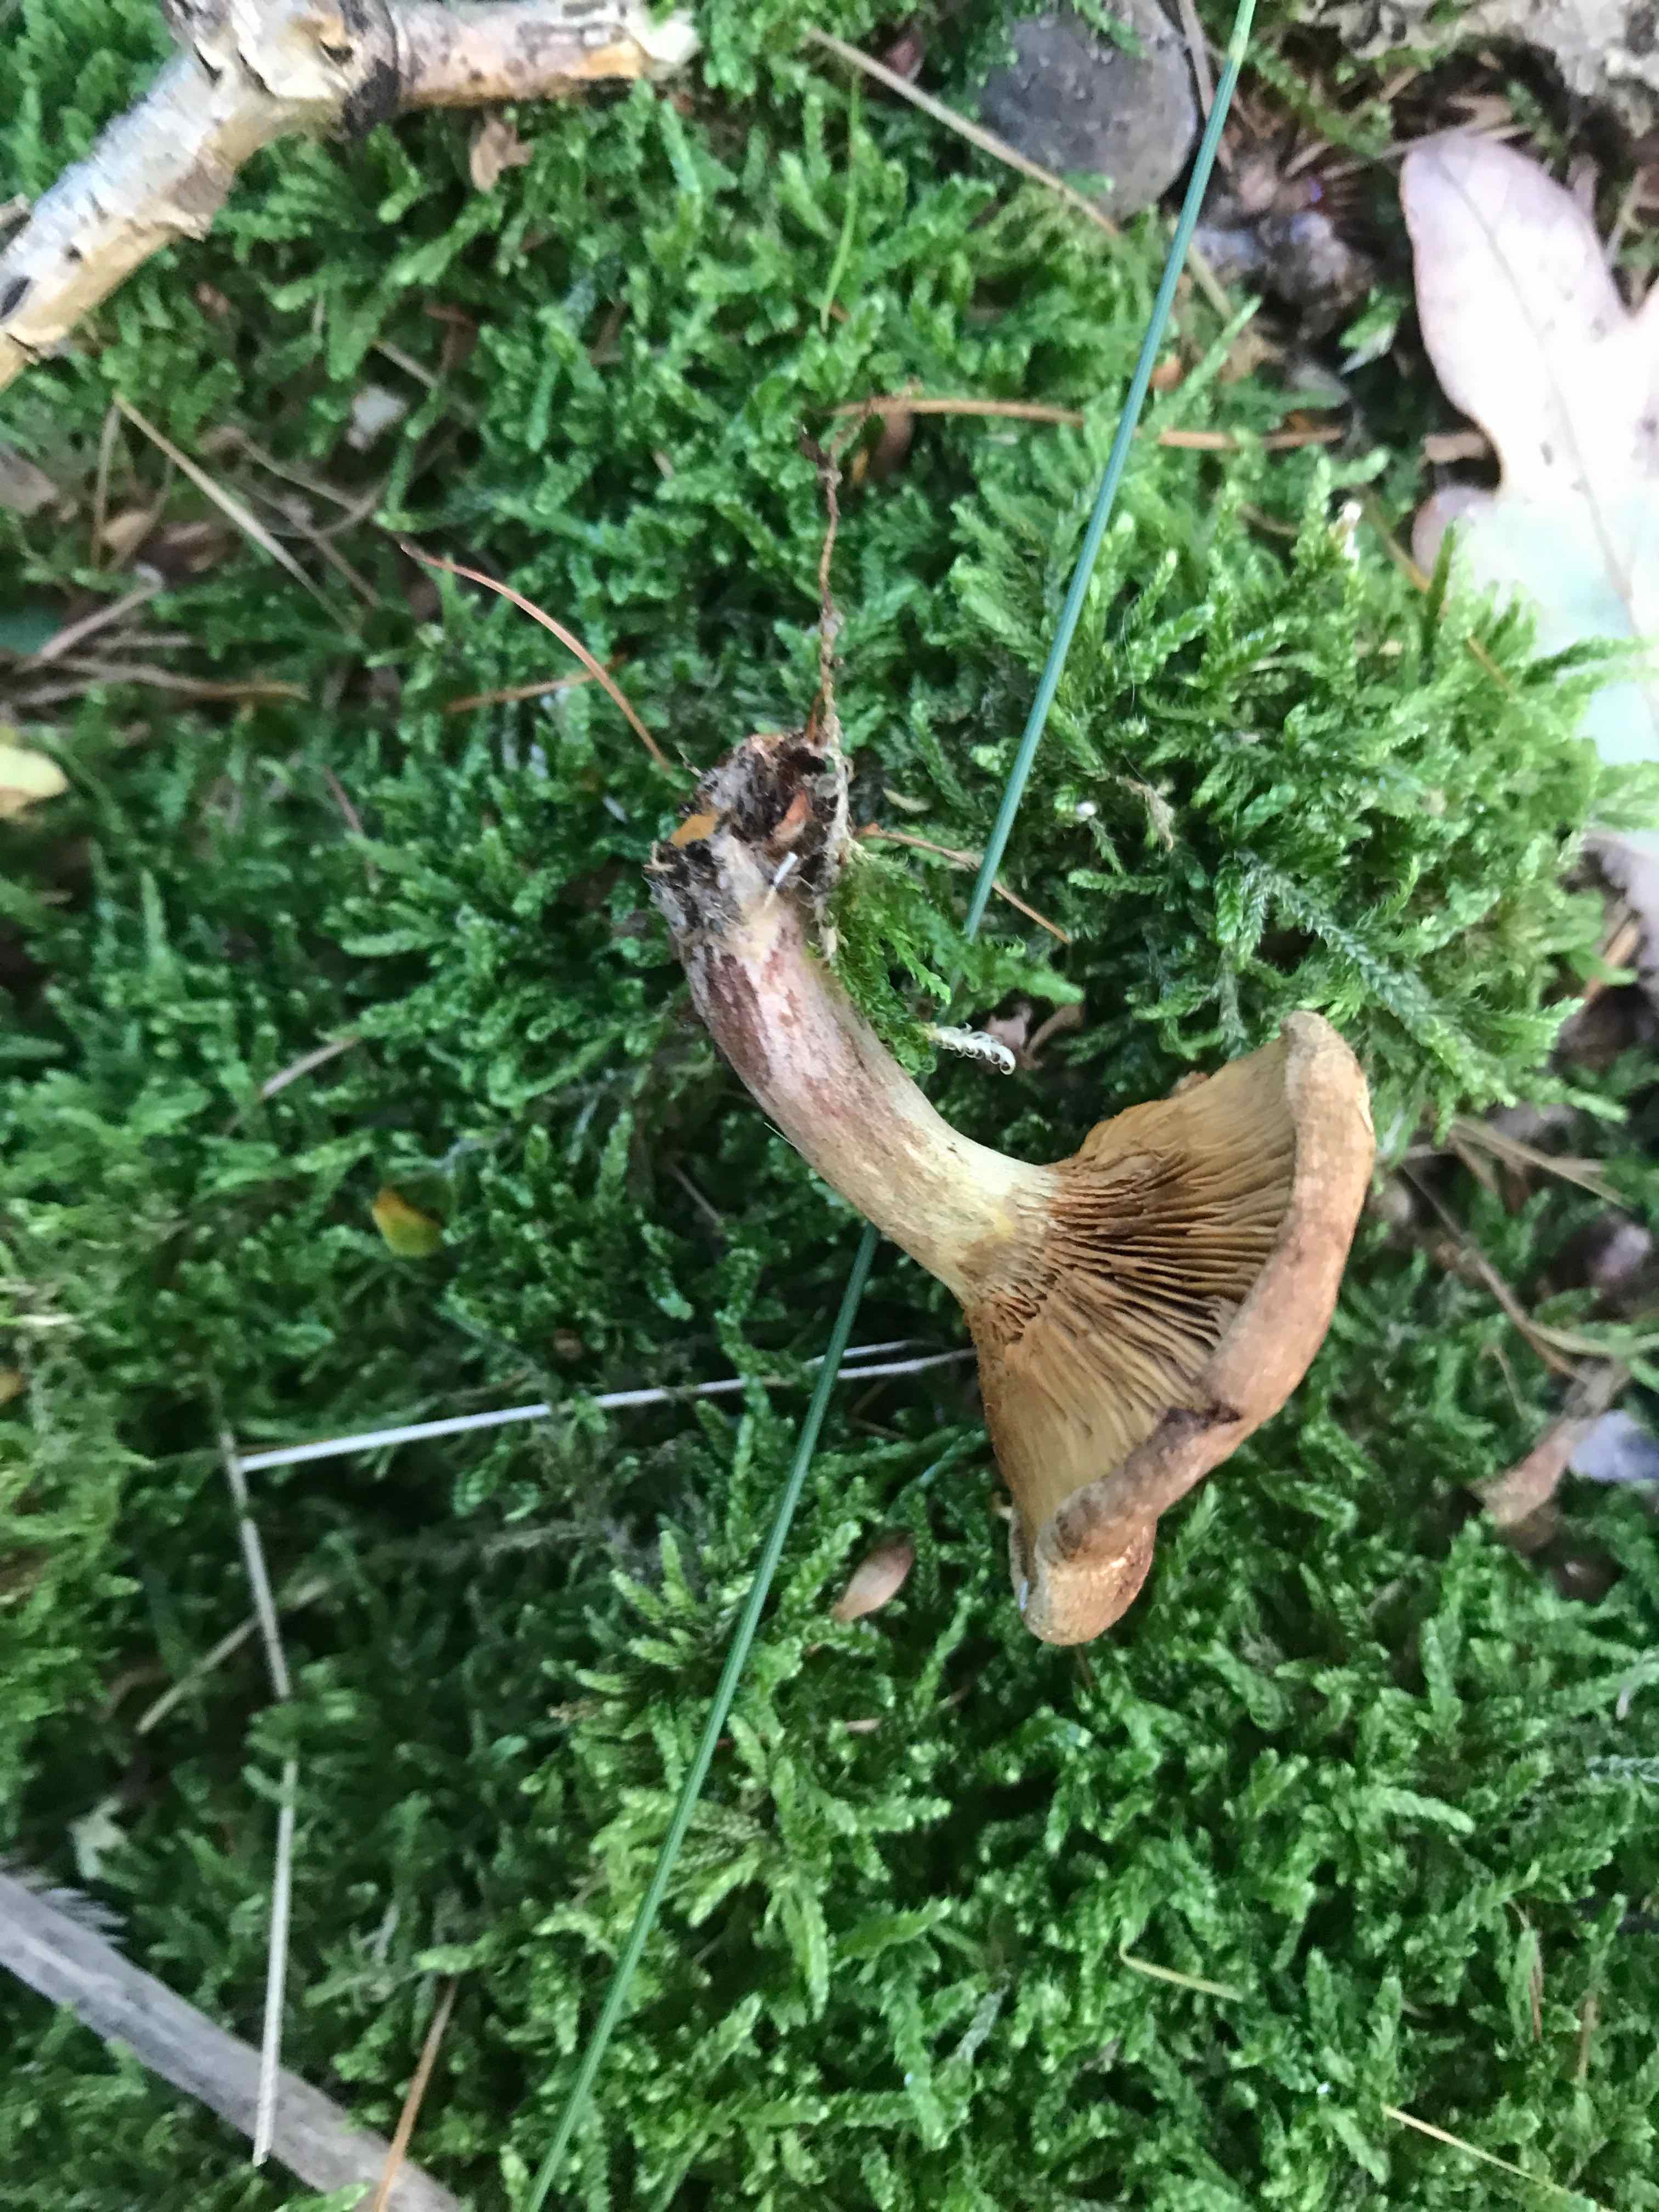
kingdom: Fungi
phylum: Basidiomycota
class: Agaricomycetes
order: Boletales
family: Paxillaceae
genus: Paxillus
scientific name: Paxillus involutus
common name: almindelig netbladhat
